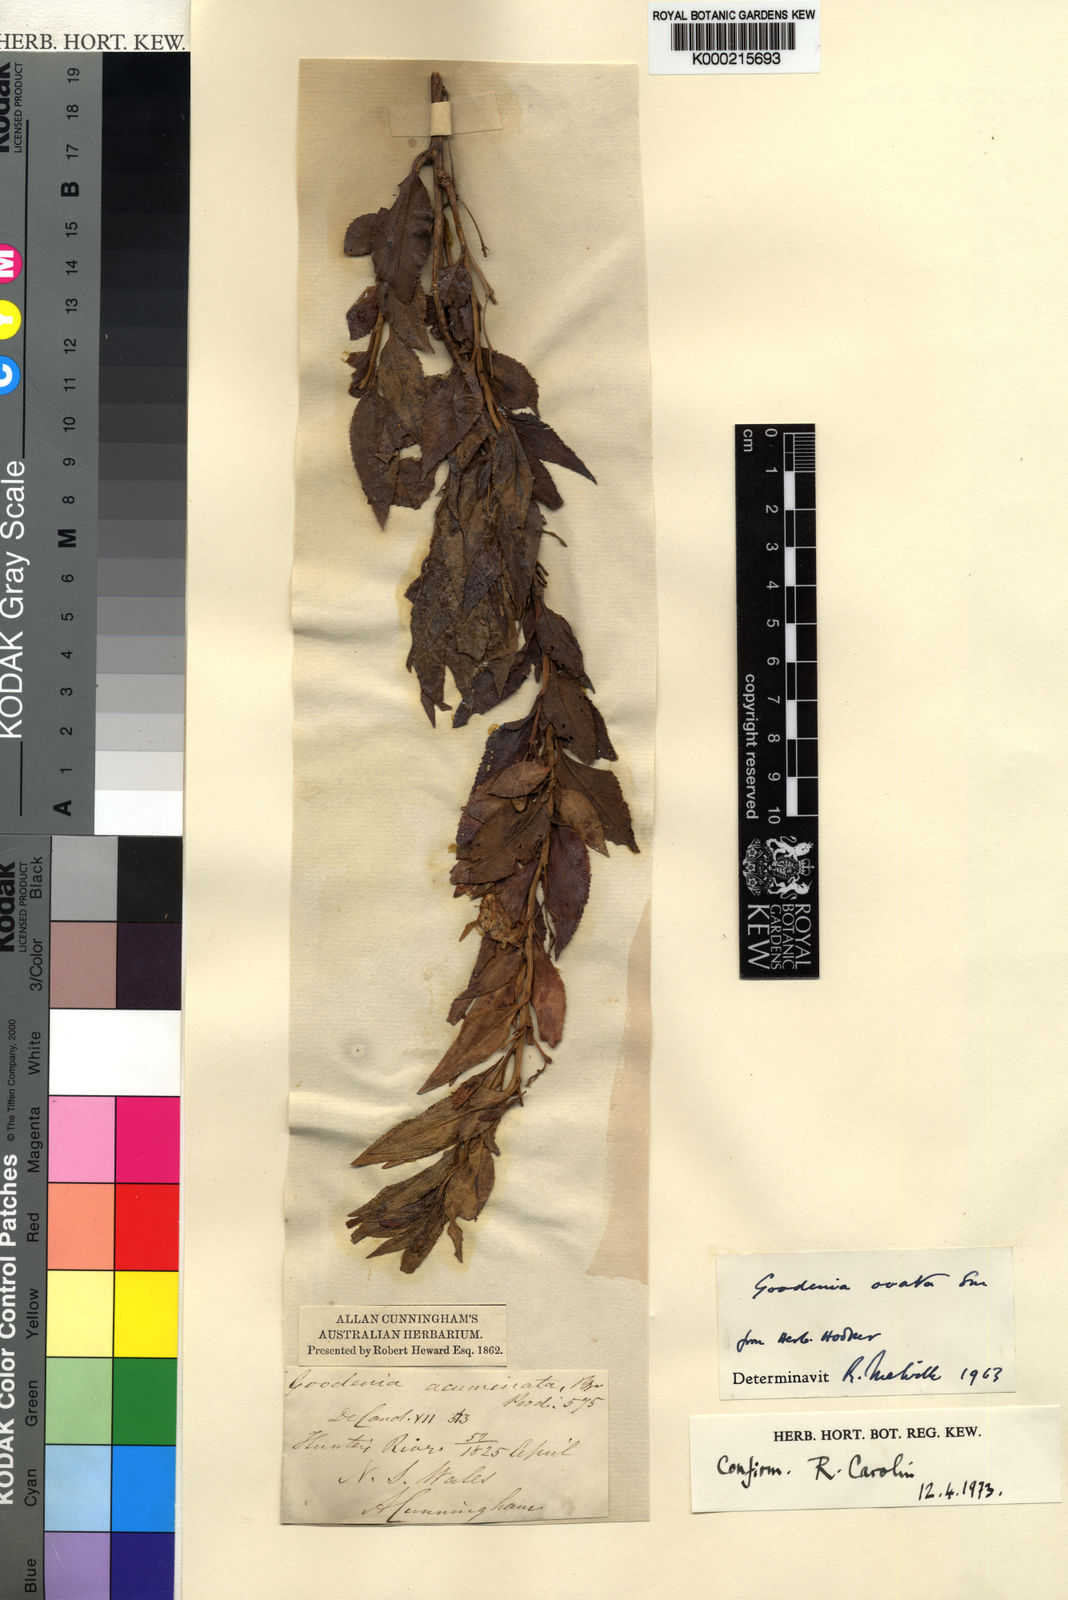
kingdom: Plantae
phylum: Tracheophyta
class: Magnoliopsida
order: Asterales
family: Goodeniaceae
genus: Goodenia
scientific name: Goodenia ovata
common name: Hop goodenia
